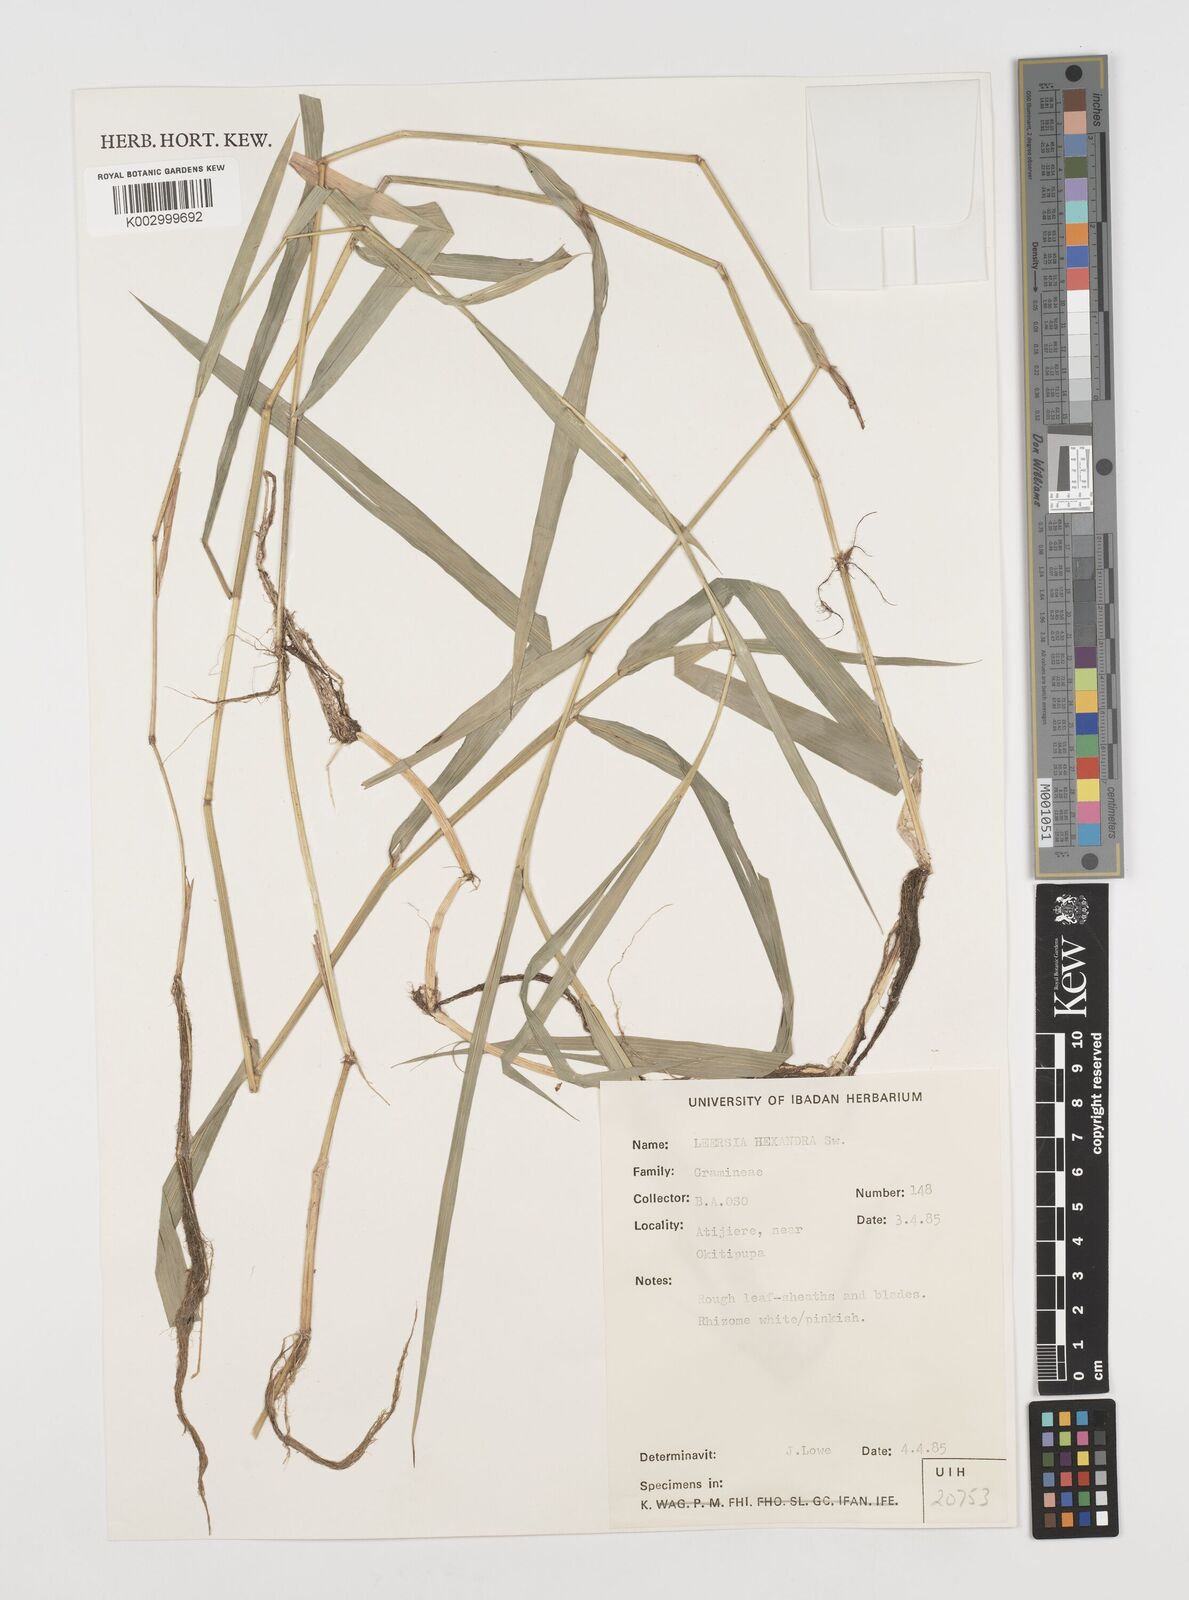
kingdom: Plantae
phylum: Tracheophyta
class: Liliopsida
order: Poales
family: Poaceae
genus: Leersia
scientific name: Leersia hexandra
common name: Southern cut grass
